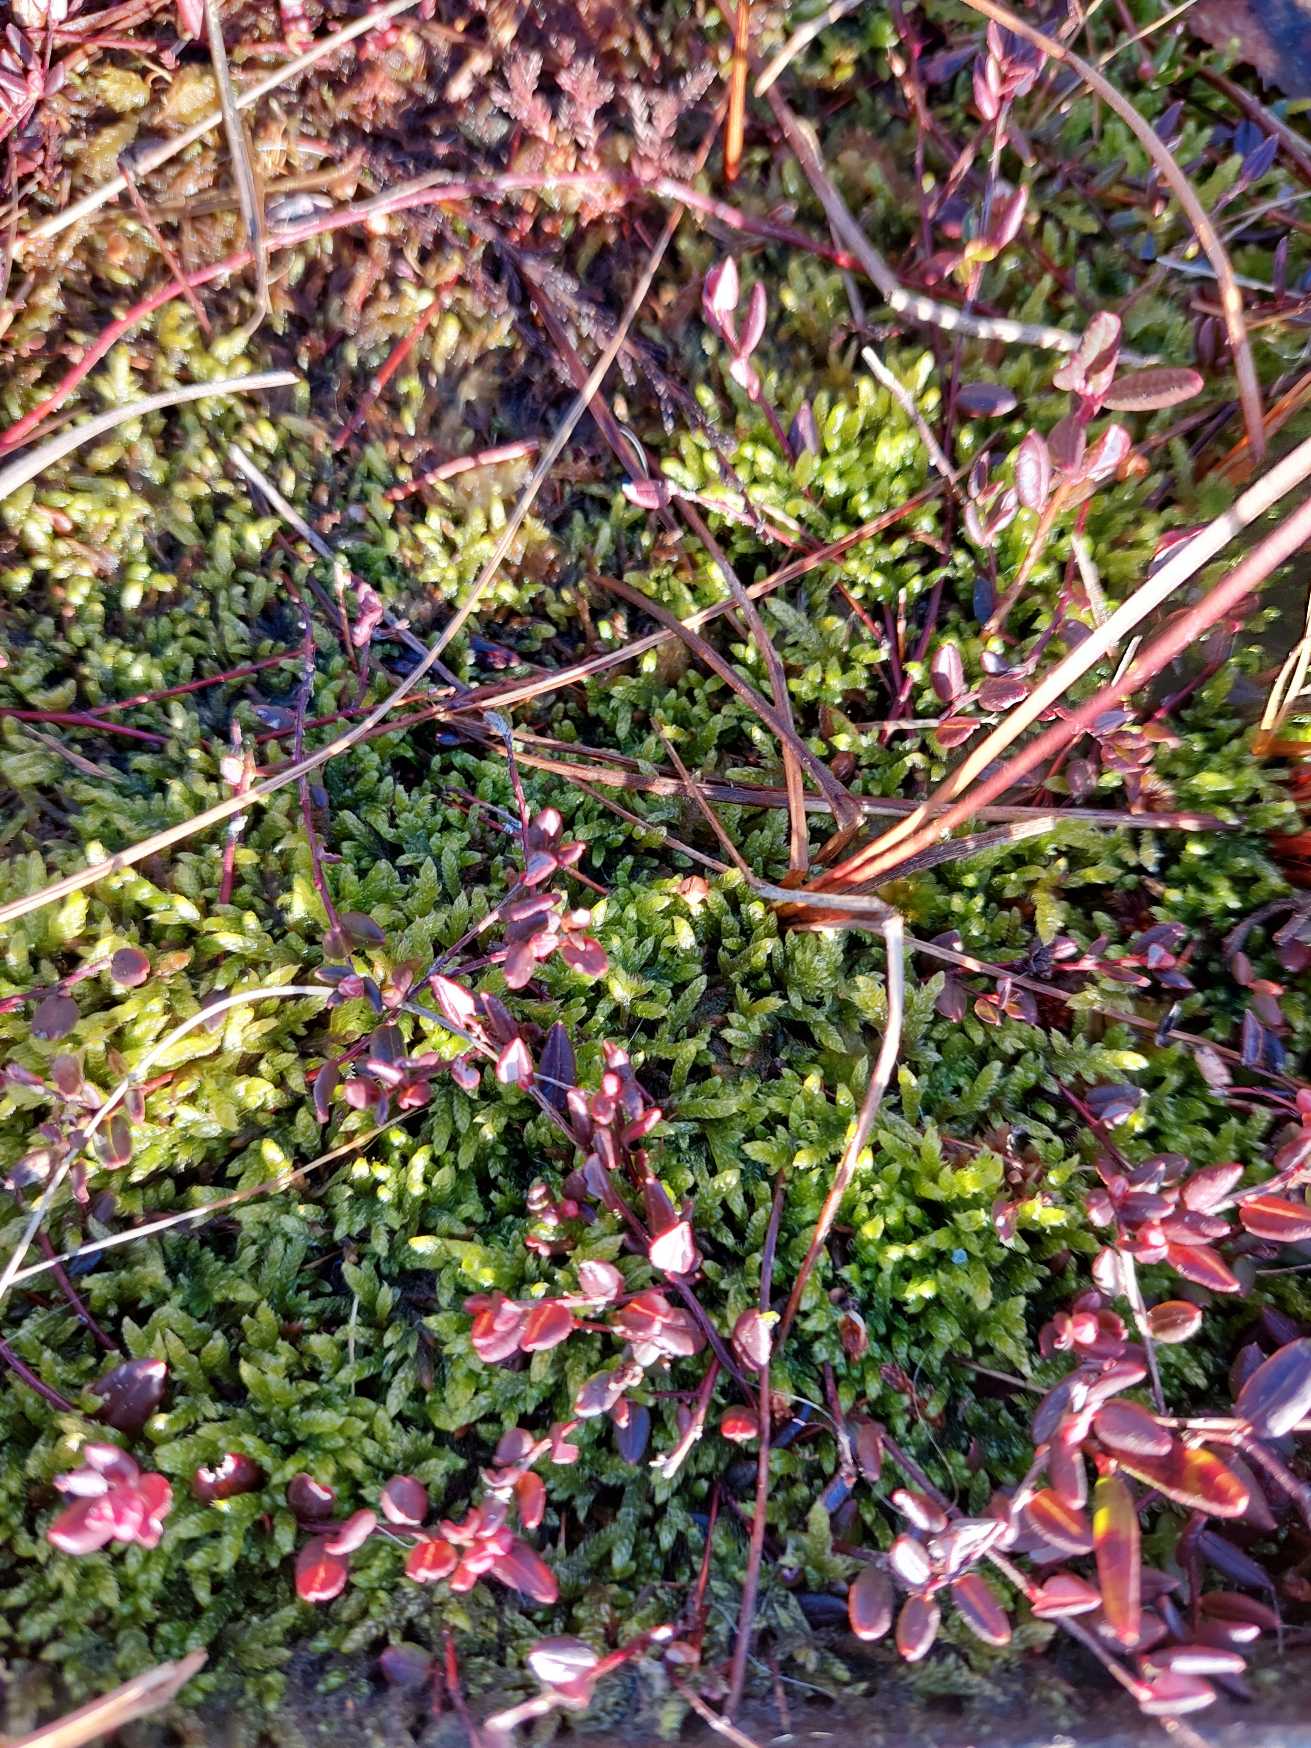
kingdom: Plantae
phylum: Tracheophyta
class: Magnoliopsida
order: Ericales
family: Ericaceae
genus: Vaccinium
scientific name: Vaccinium oxycoccos
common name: Tranebær
